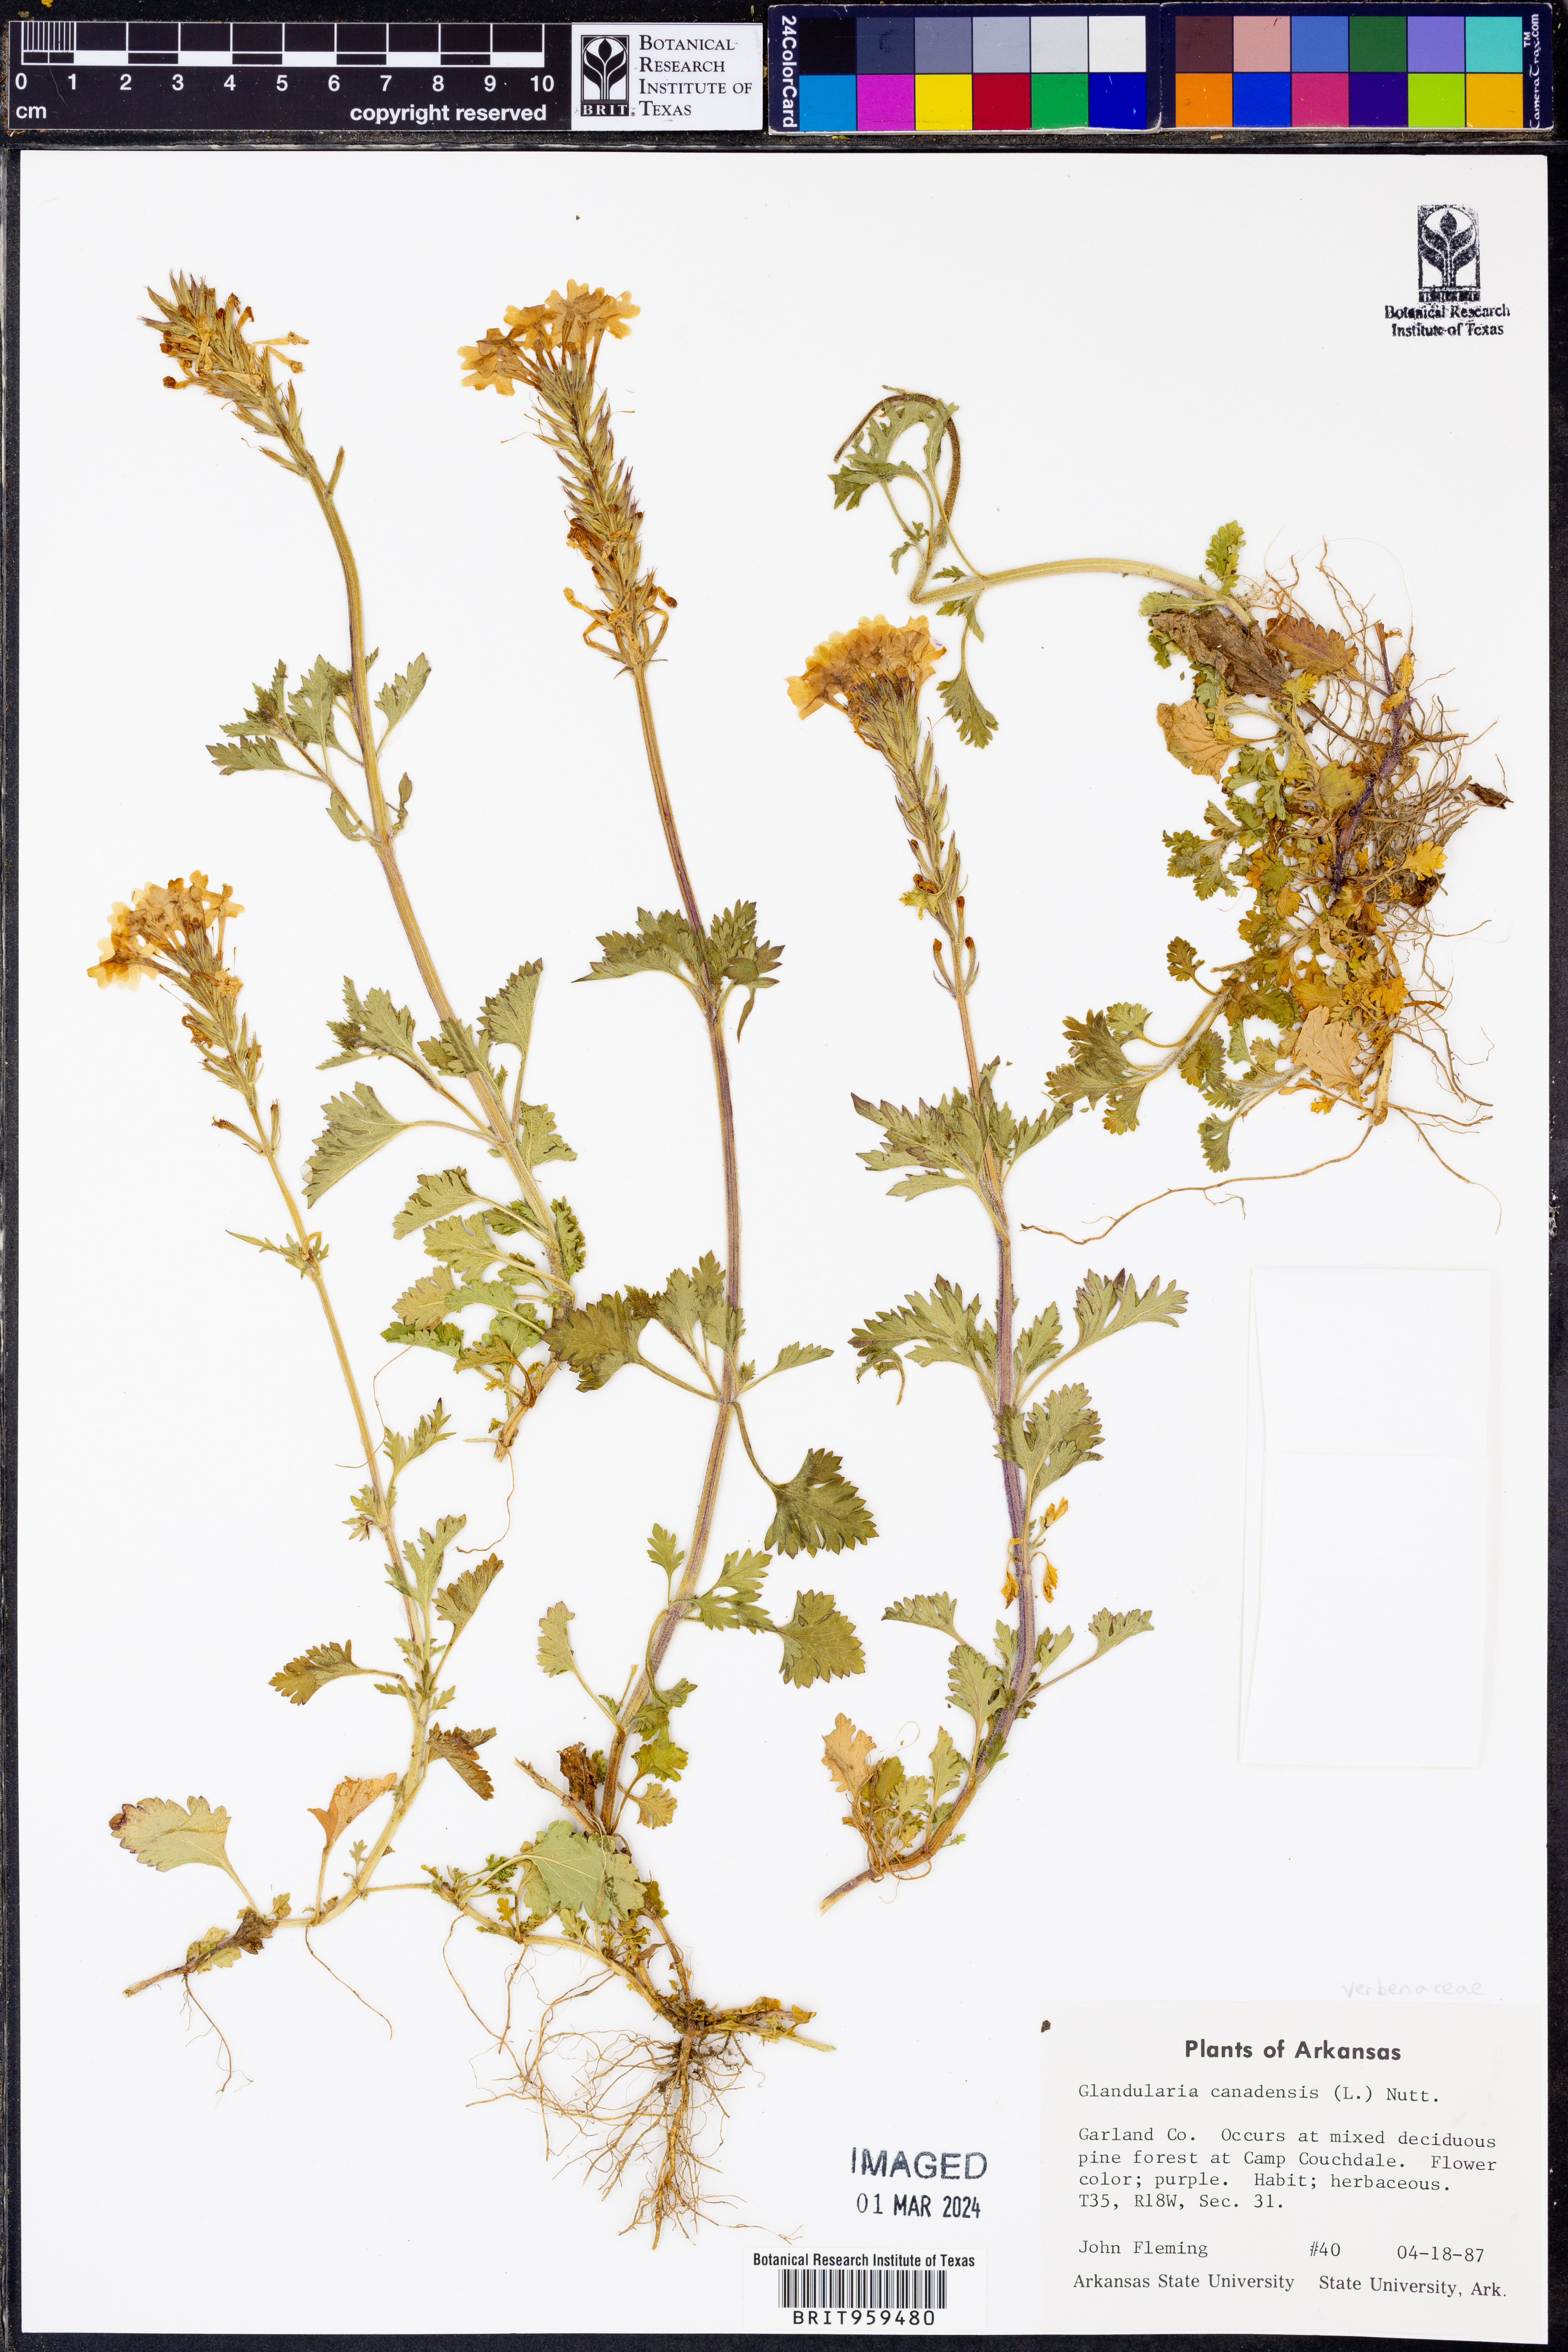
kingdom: Plantae
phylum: Tracheophyta
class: Magnoliopsida
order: Lamiales
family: Verbenaceae
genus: Verbena
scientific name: Verbena canadensis
